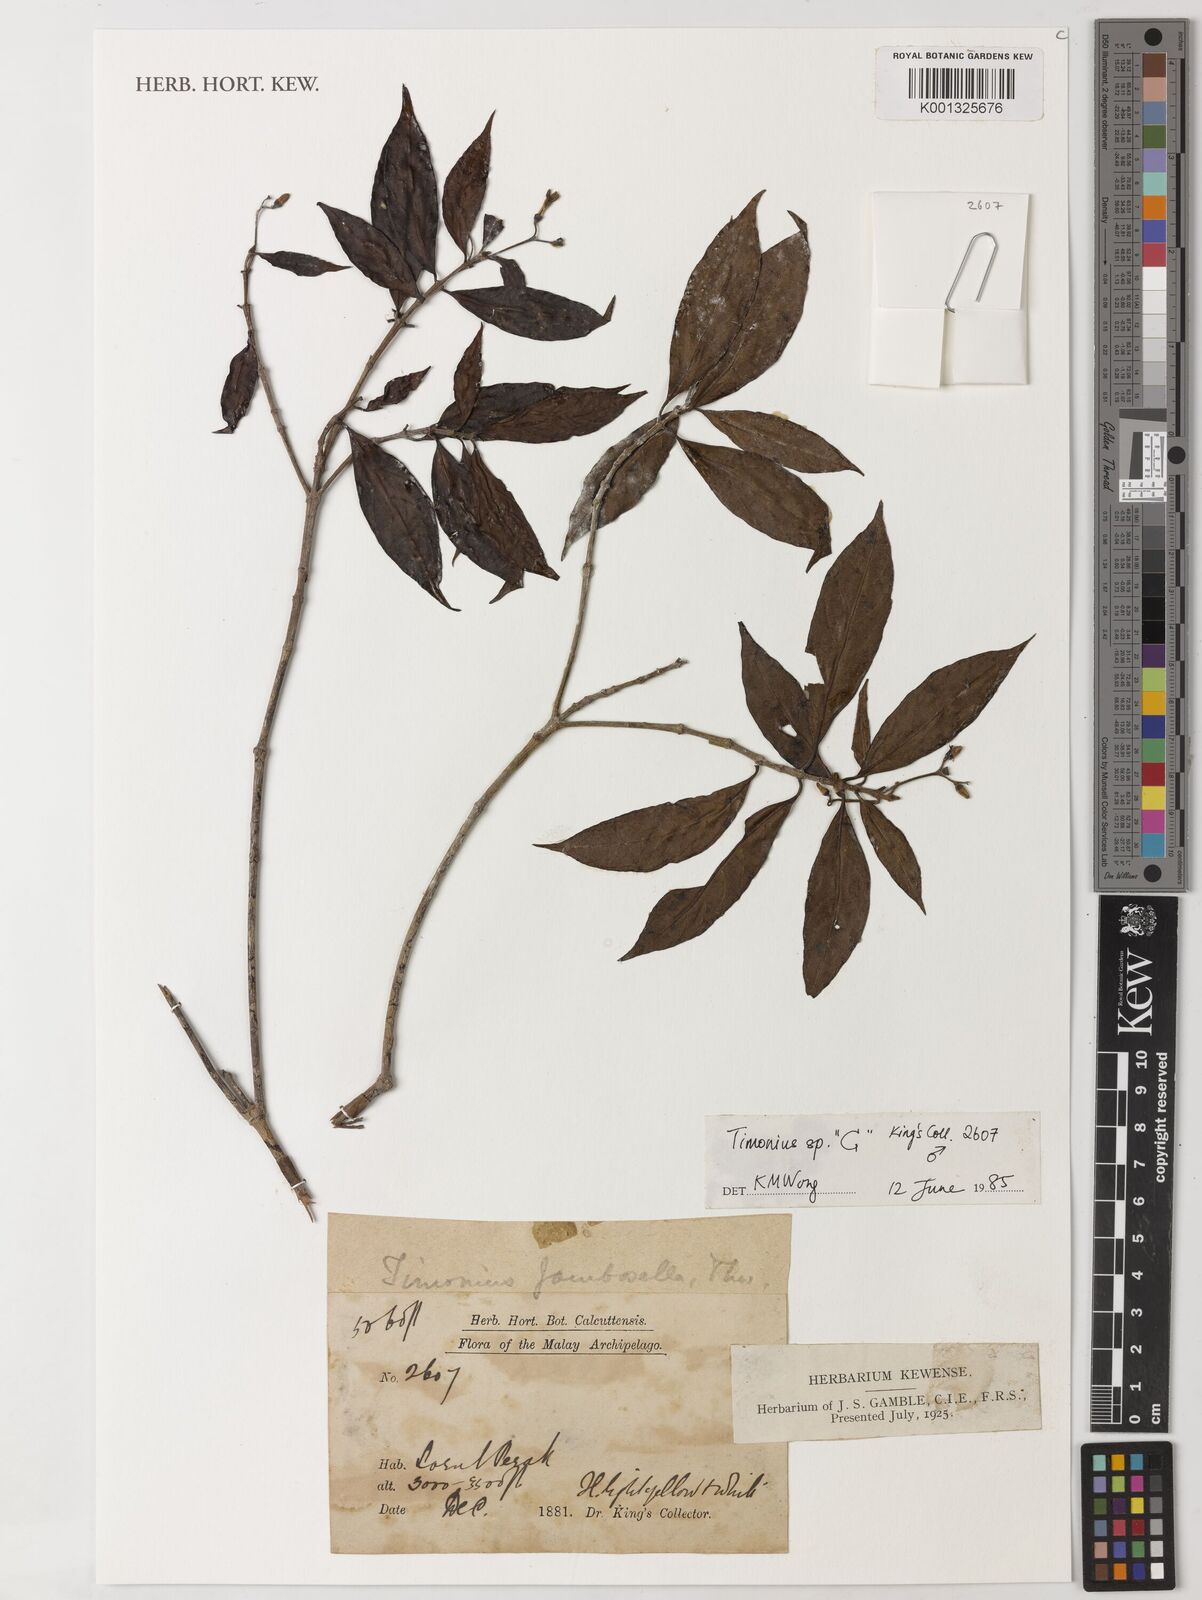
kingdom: Plantae
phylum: Tracheophyta
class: Magnoliopsida
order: Gentianales
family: Rubiaceae
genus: Timonius
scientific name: Timonius
